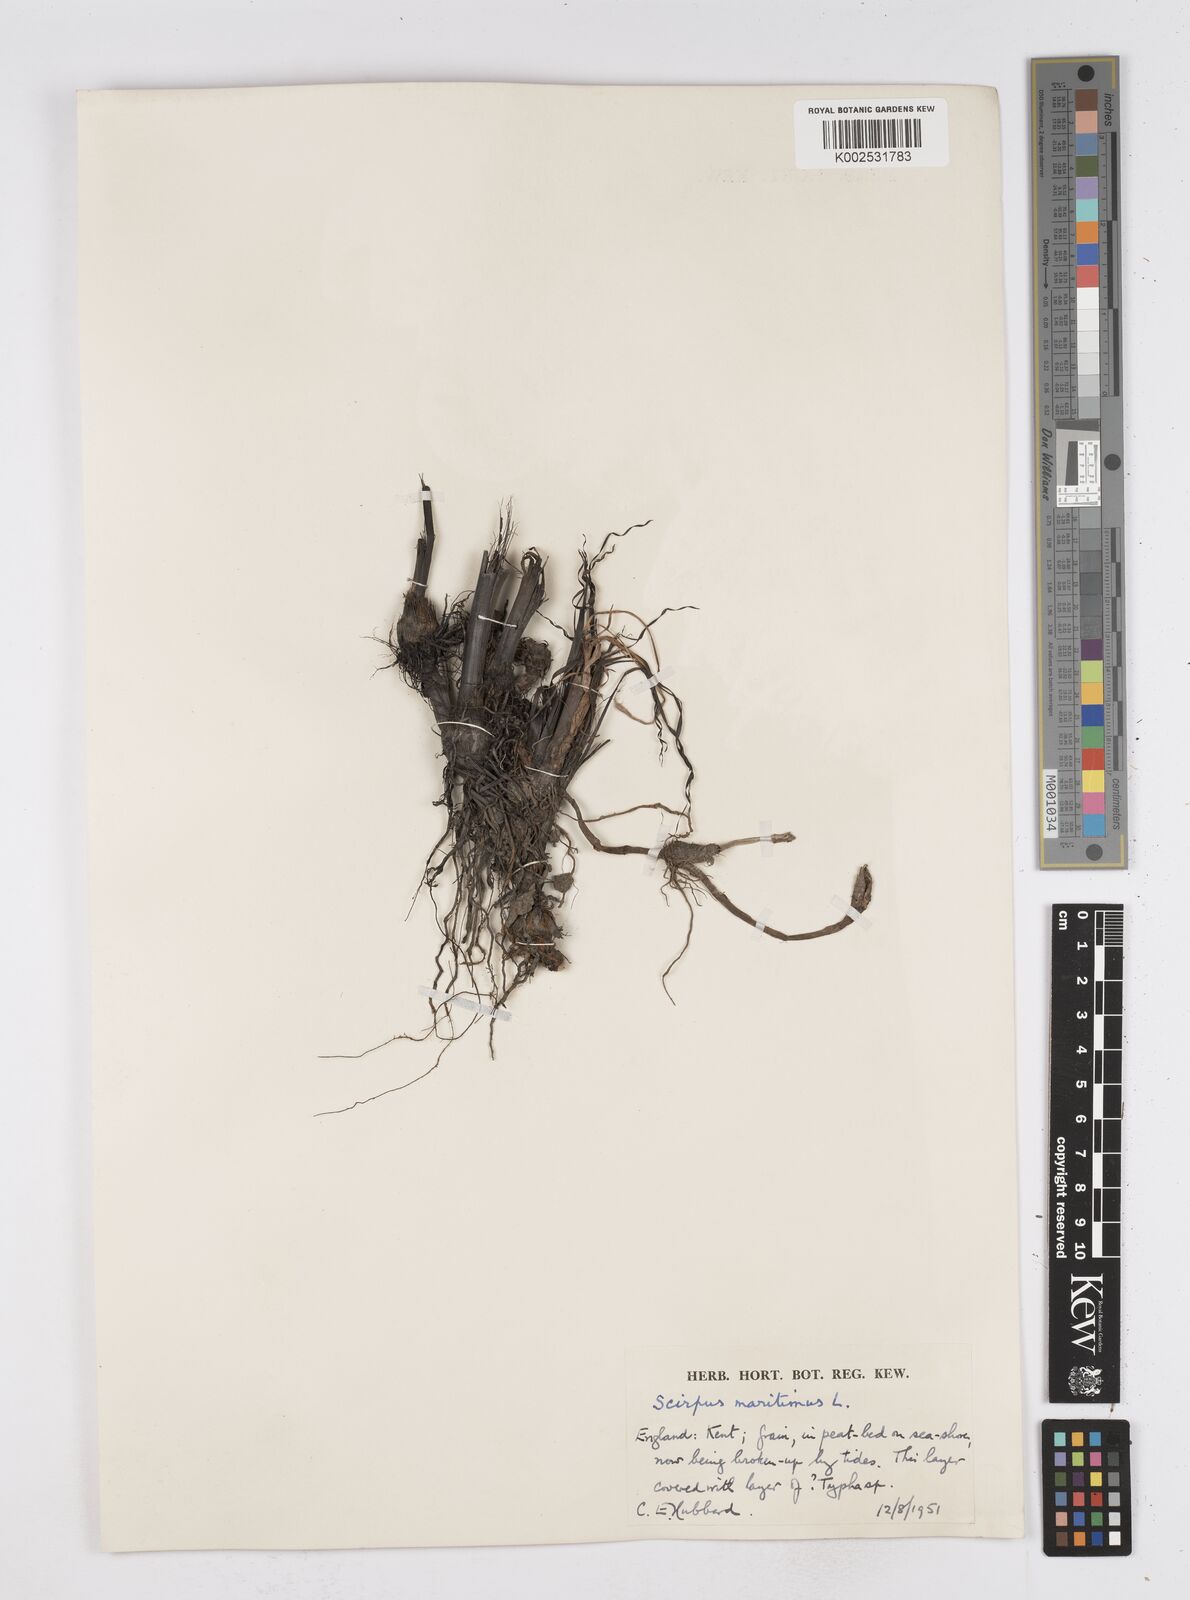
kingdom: Plantae
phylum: Tracheophyta
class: Liliopsida
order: Poales
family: Cyperaceae
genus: Bolboschoenus
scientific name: Bolboschoenus maritimus
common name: Sea club-rush
